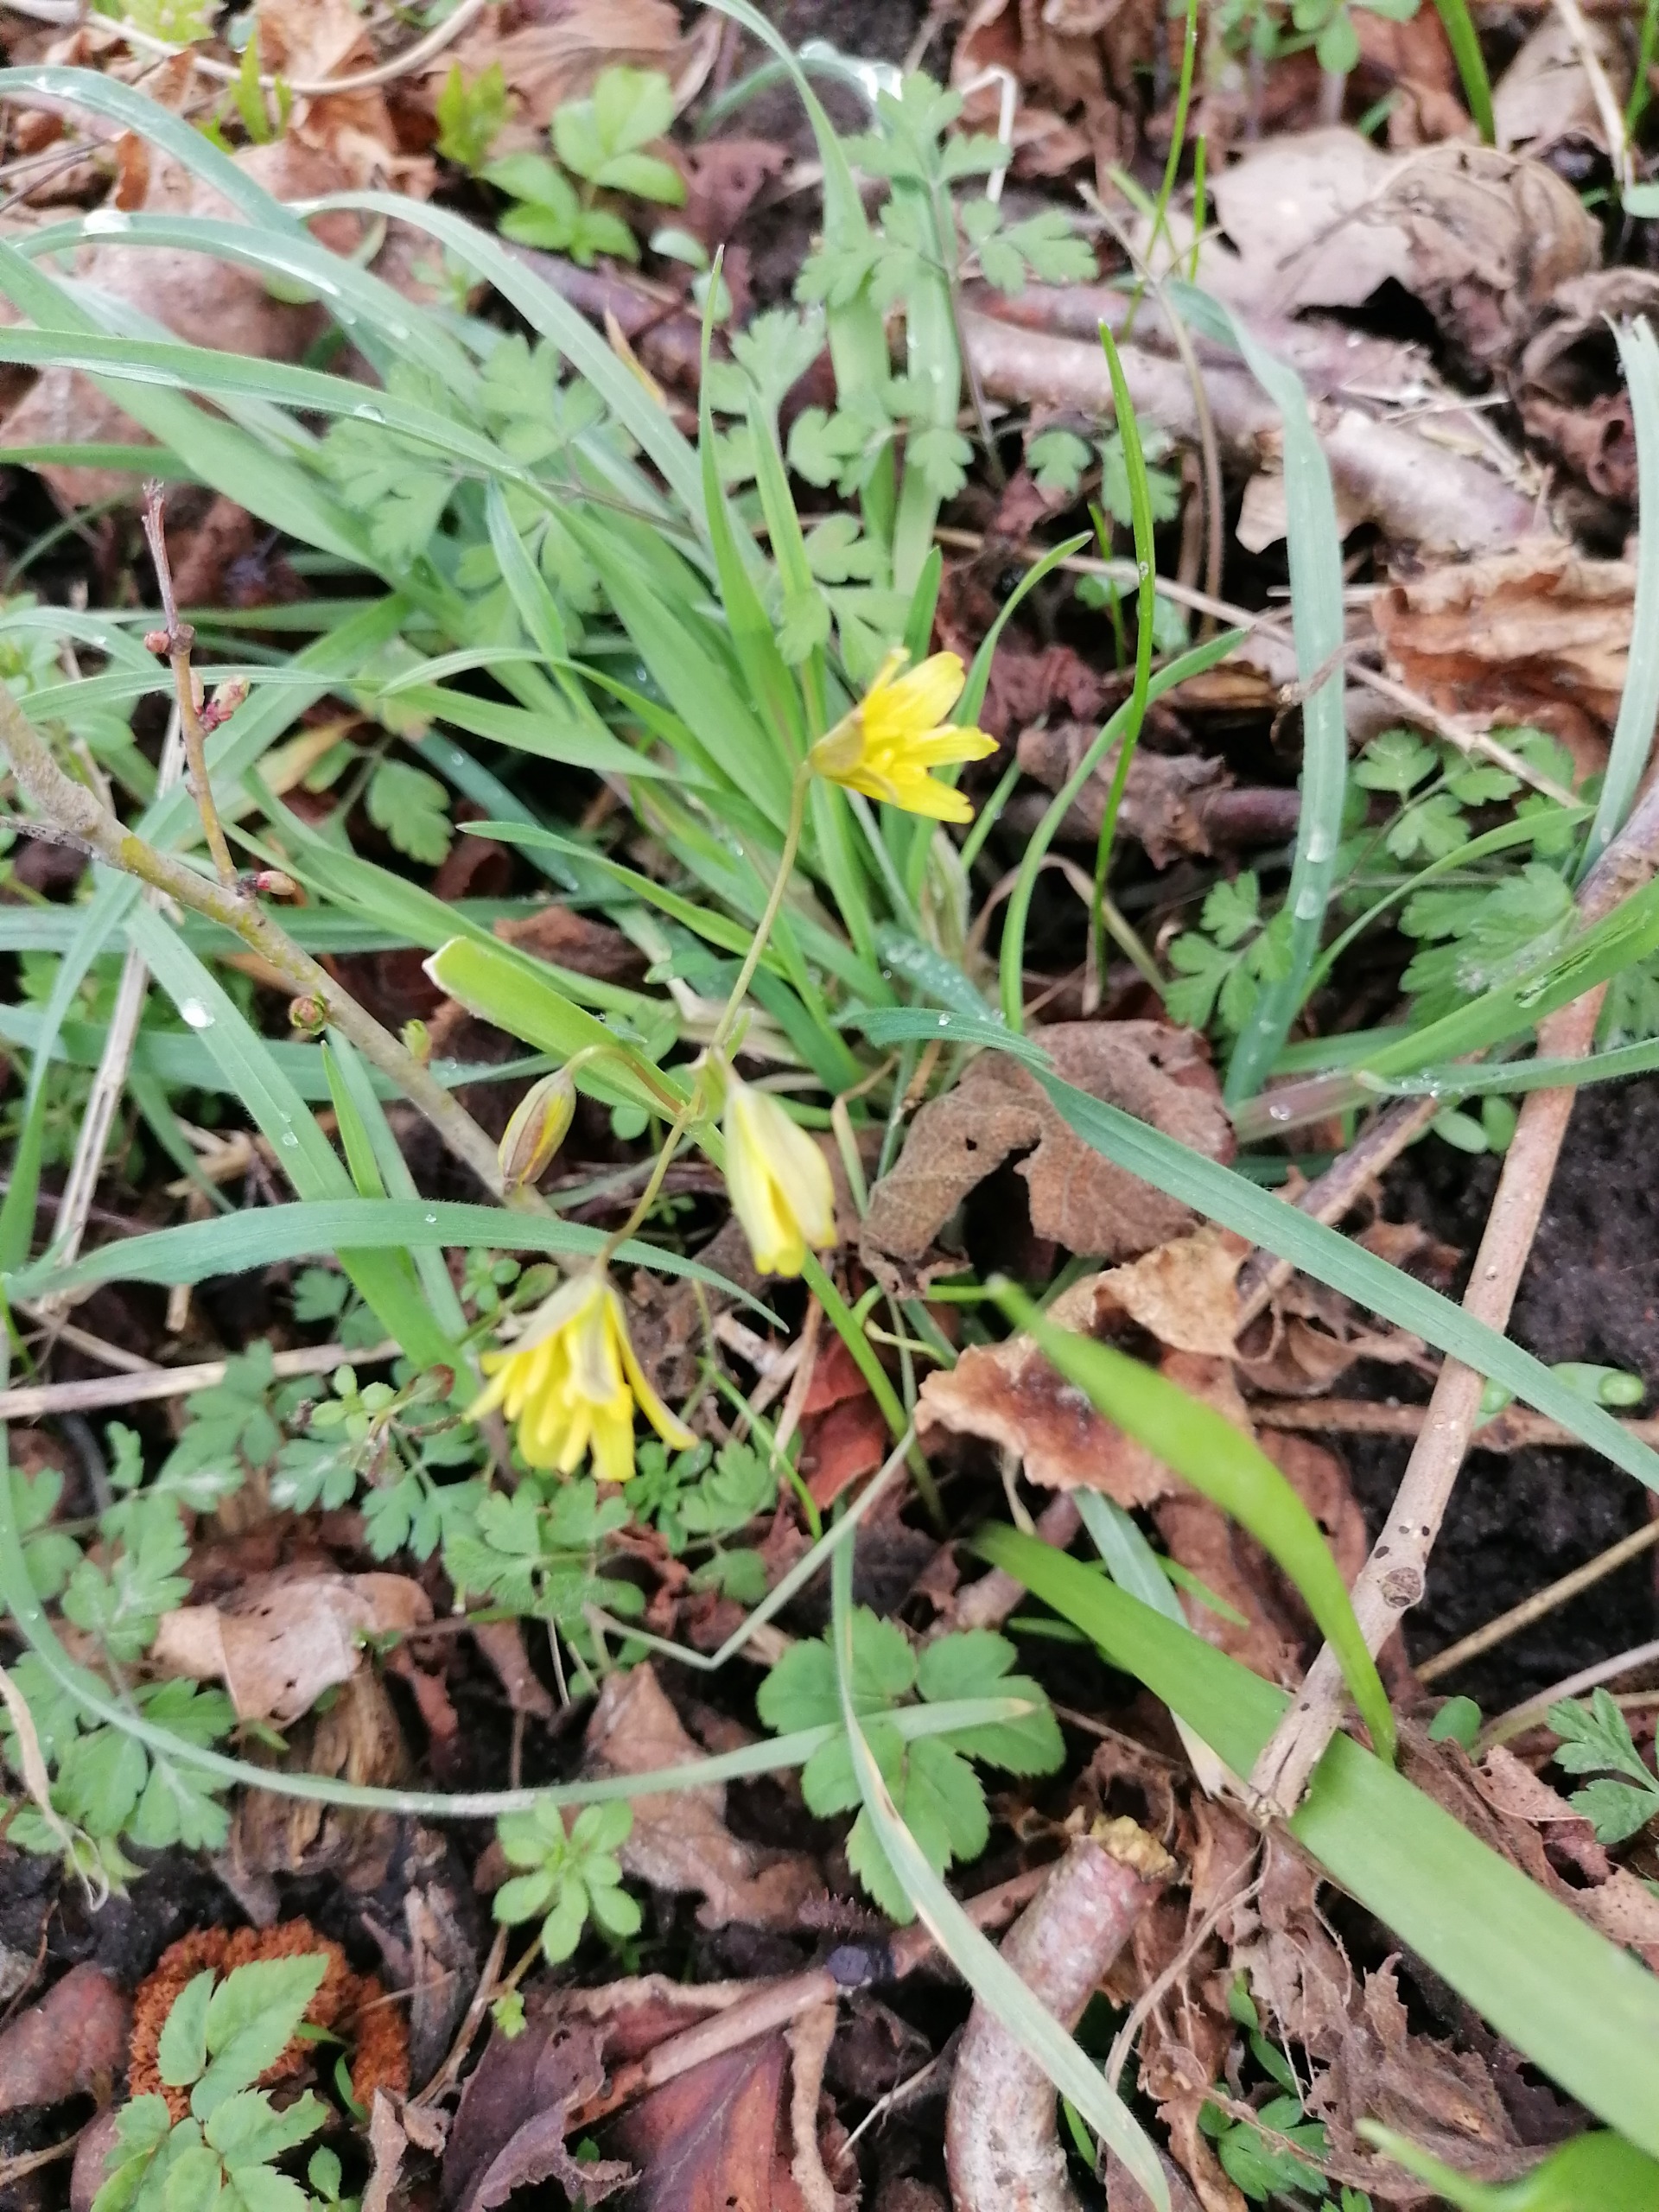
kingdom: Plantae
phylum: Tracheophyta
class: Liliopsida
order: Liliales
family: Liliaceae
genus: Gagea
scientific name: Gagea lutea
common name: Almindelig guldstjerne
